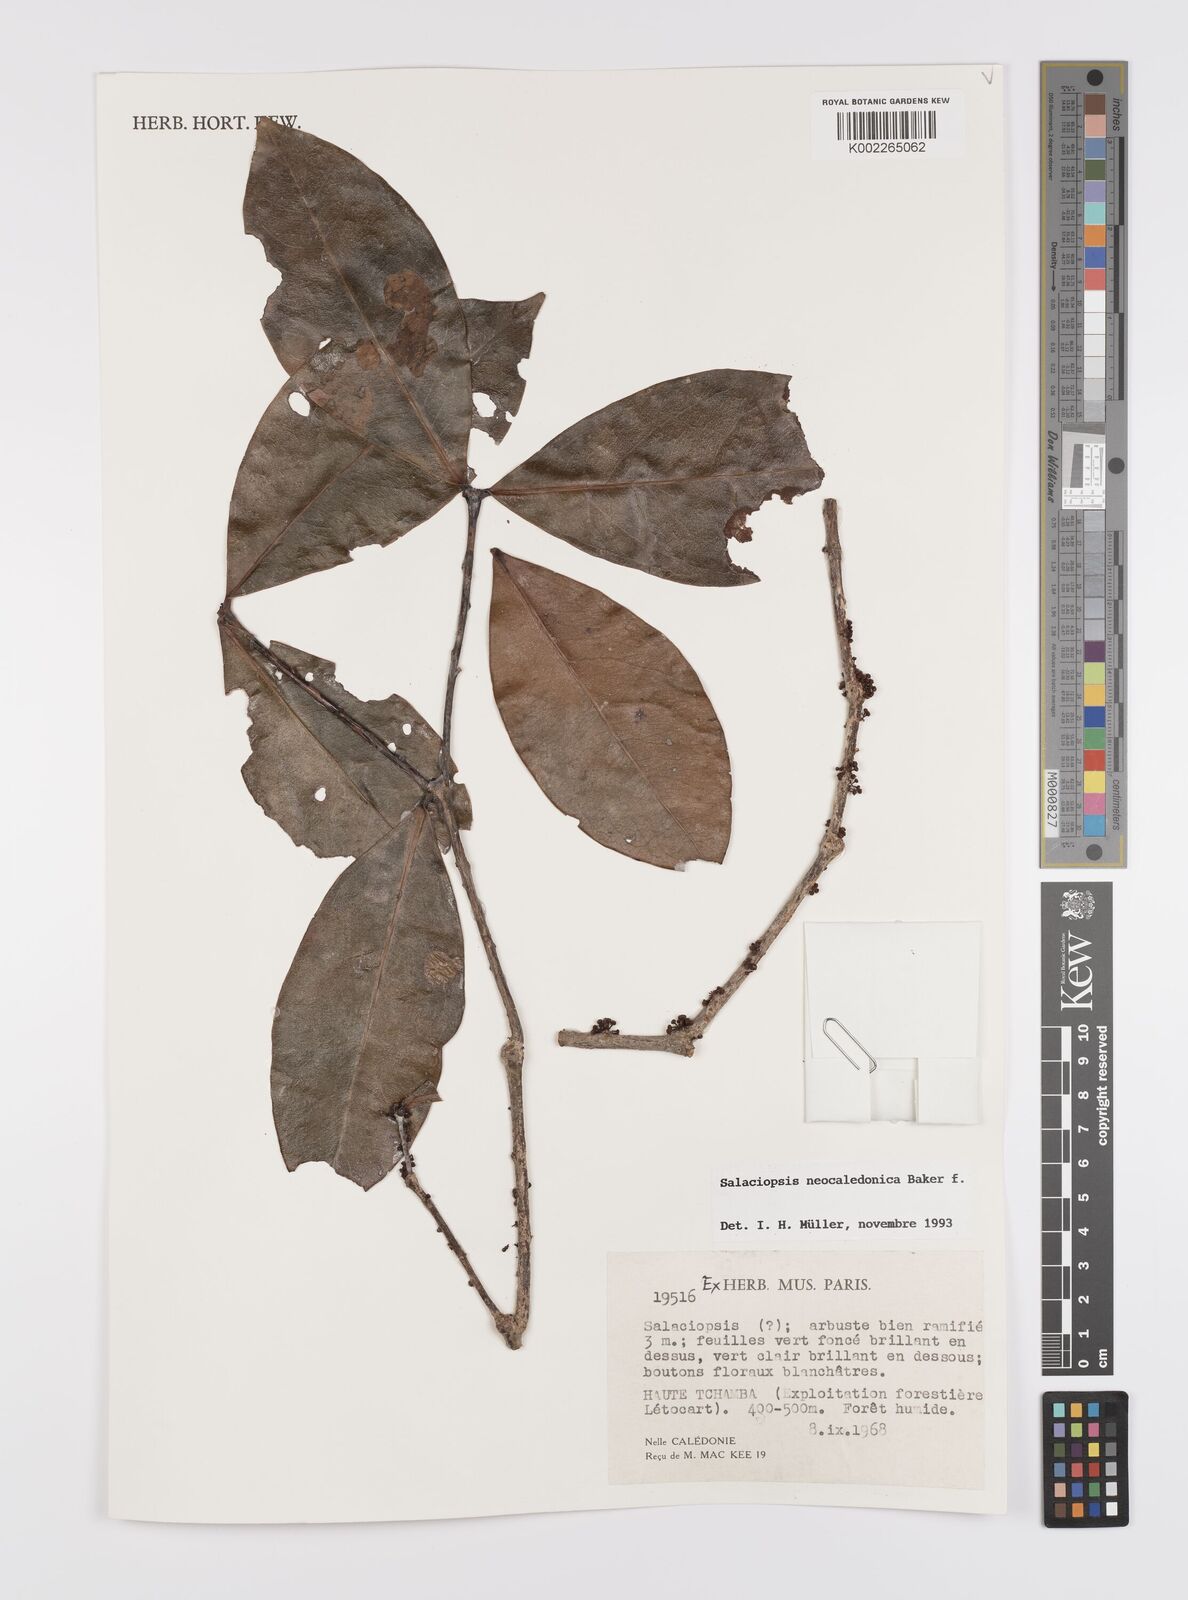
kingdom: Plantae
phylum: Tracheophyta
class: Magnoliopsida
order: Celastrales
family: Celastraceae
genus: Salaciopsis
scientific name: Salaciopsis neocaledonica
